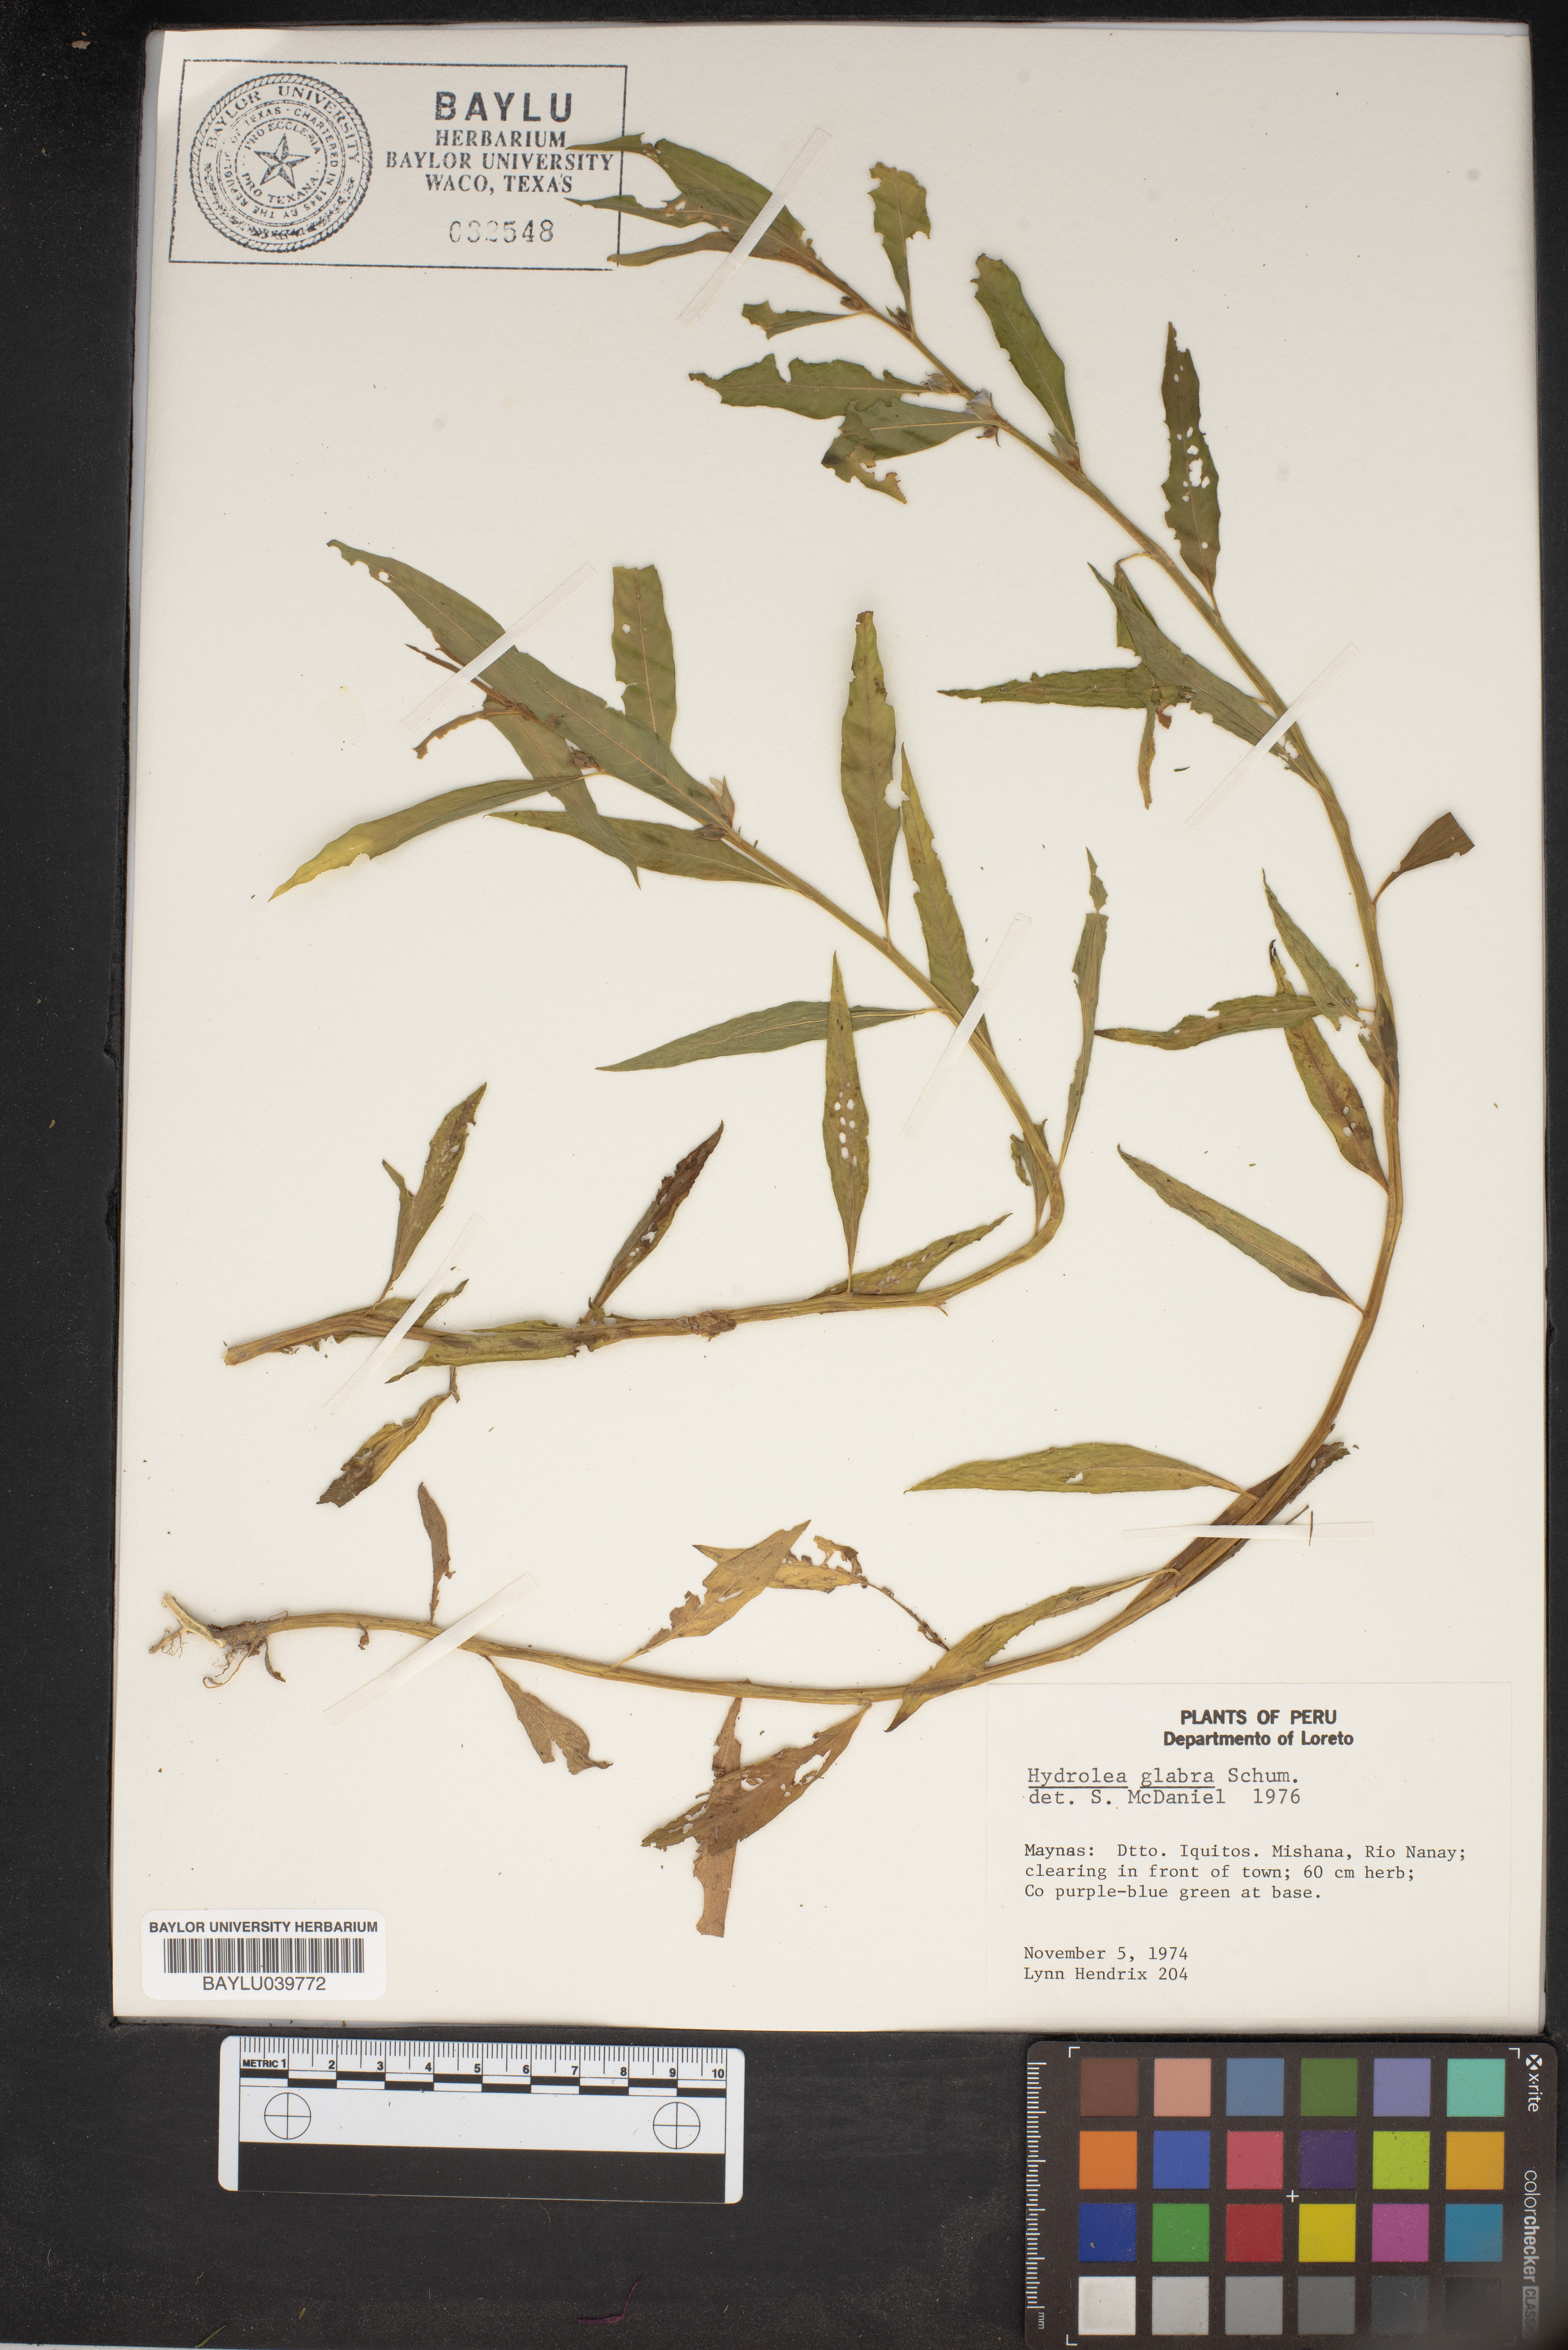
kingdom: Plantae
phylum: Tracheophyta
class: Magnoliopsida
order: Solanales
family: Hydroleaceae
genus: Hydrolea
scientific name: Hydrolea spinosa
